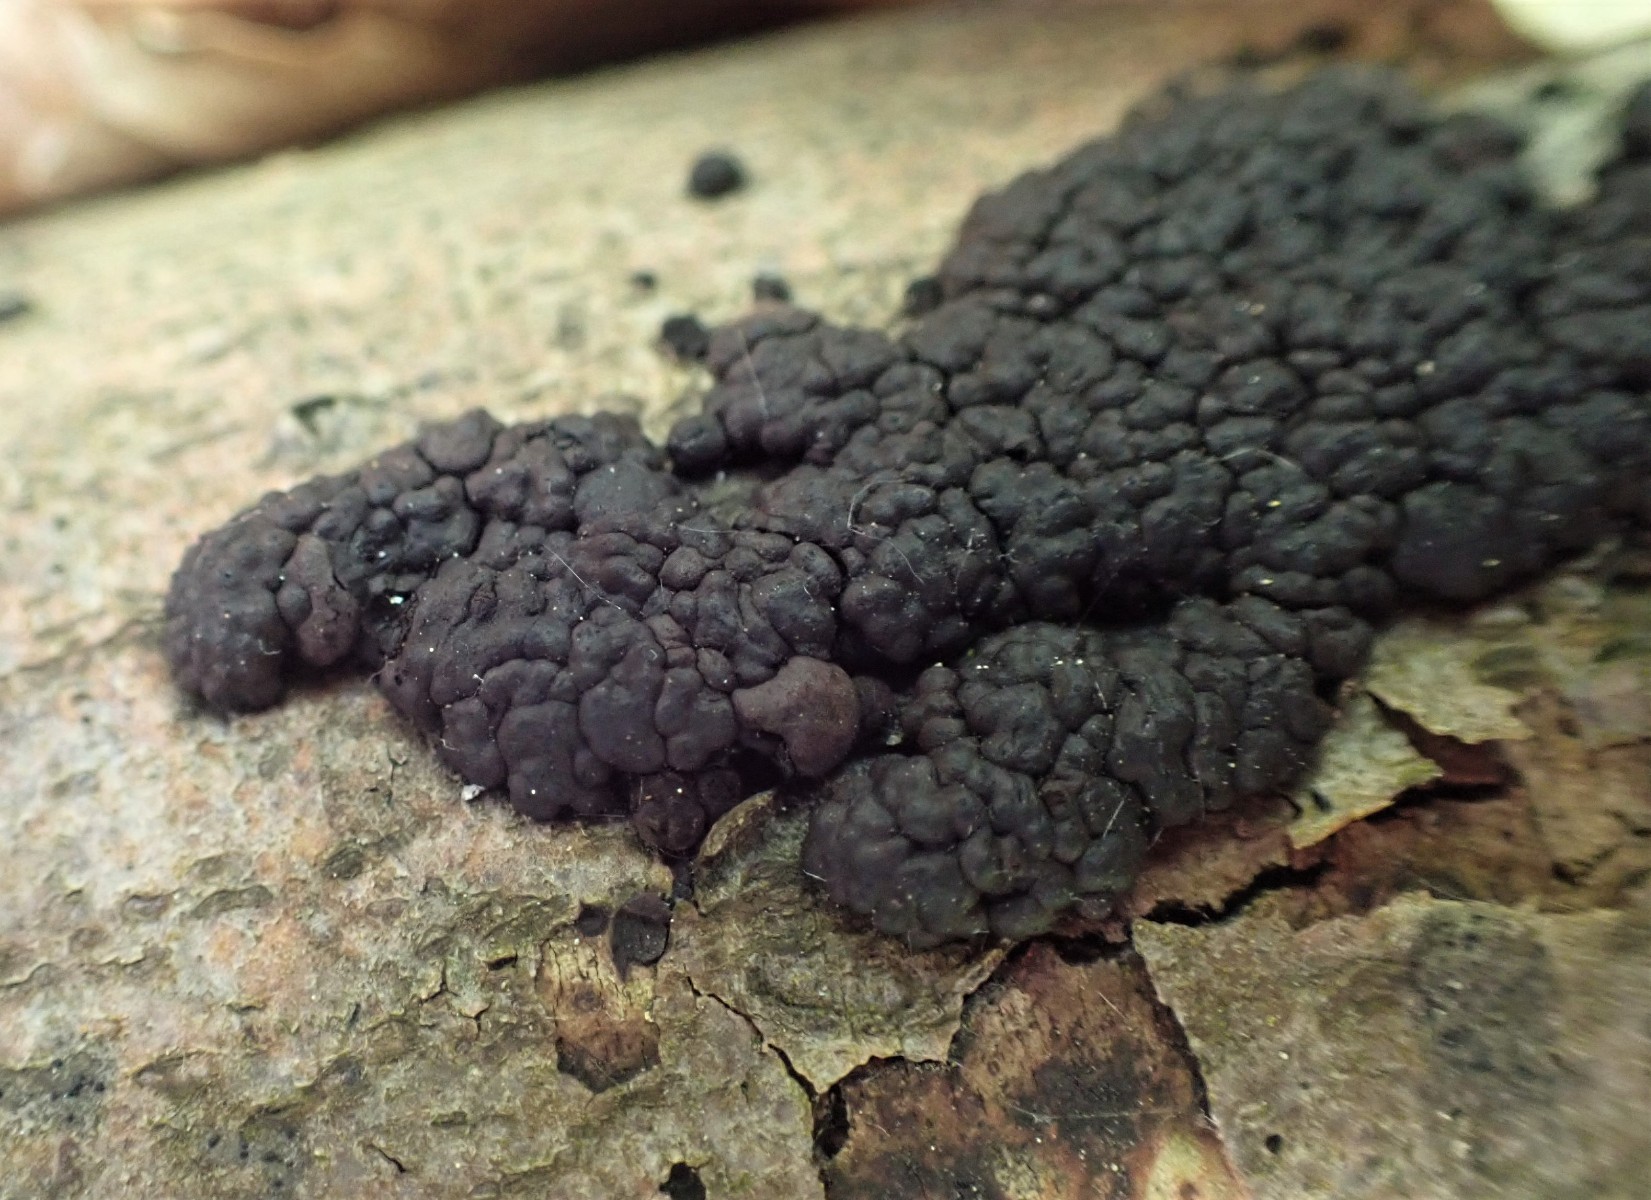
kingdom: Fungi
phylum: Ascomycota
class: Sordariomycetes
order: Xylariales
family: Hypoxylaceae
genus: Jackrogersella
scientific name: Jackrogersella cohaerens
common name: sammenflydende kulbær
